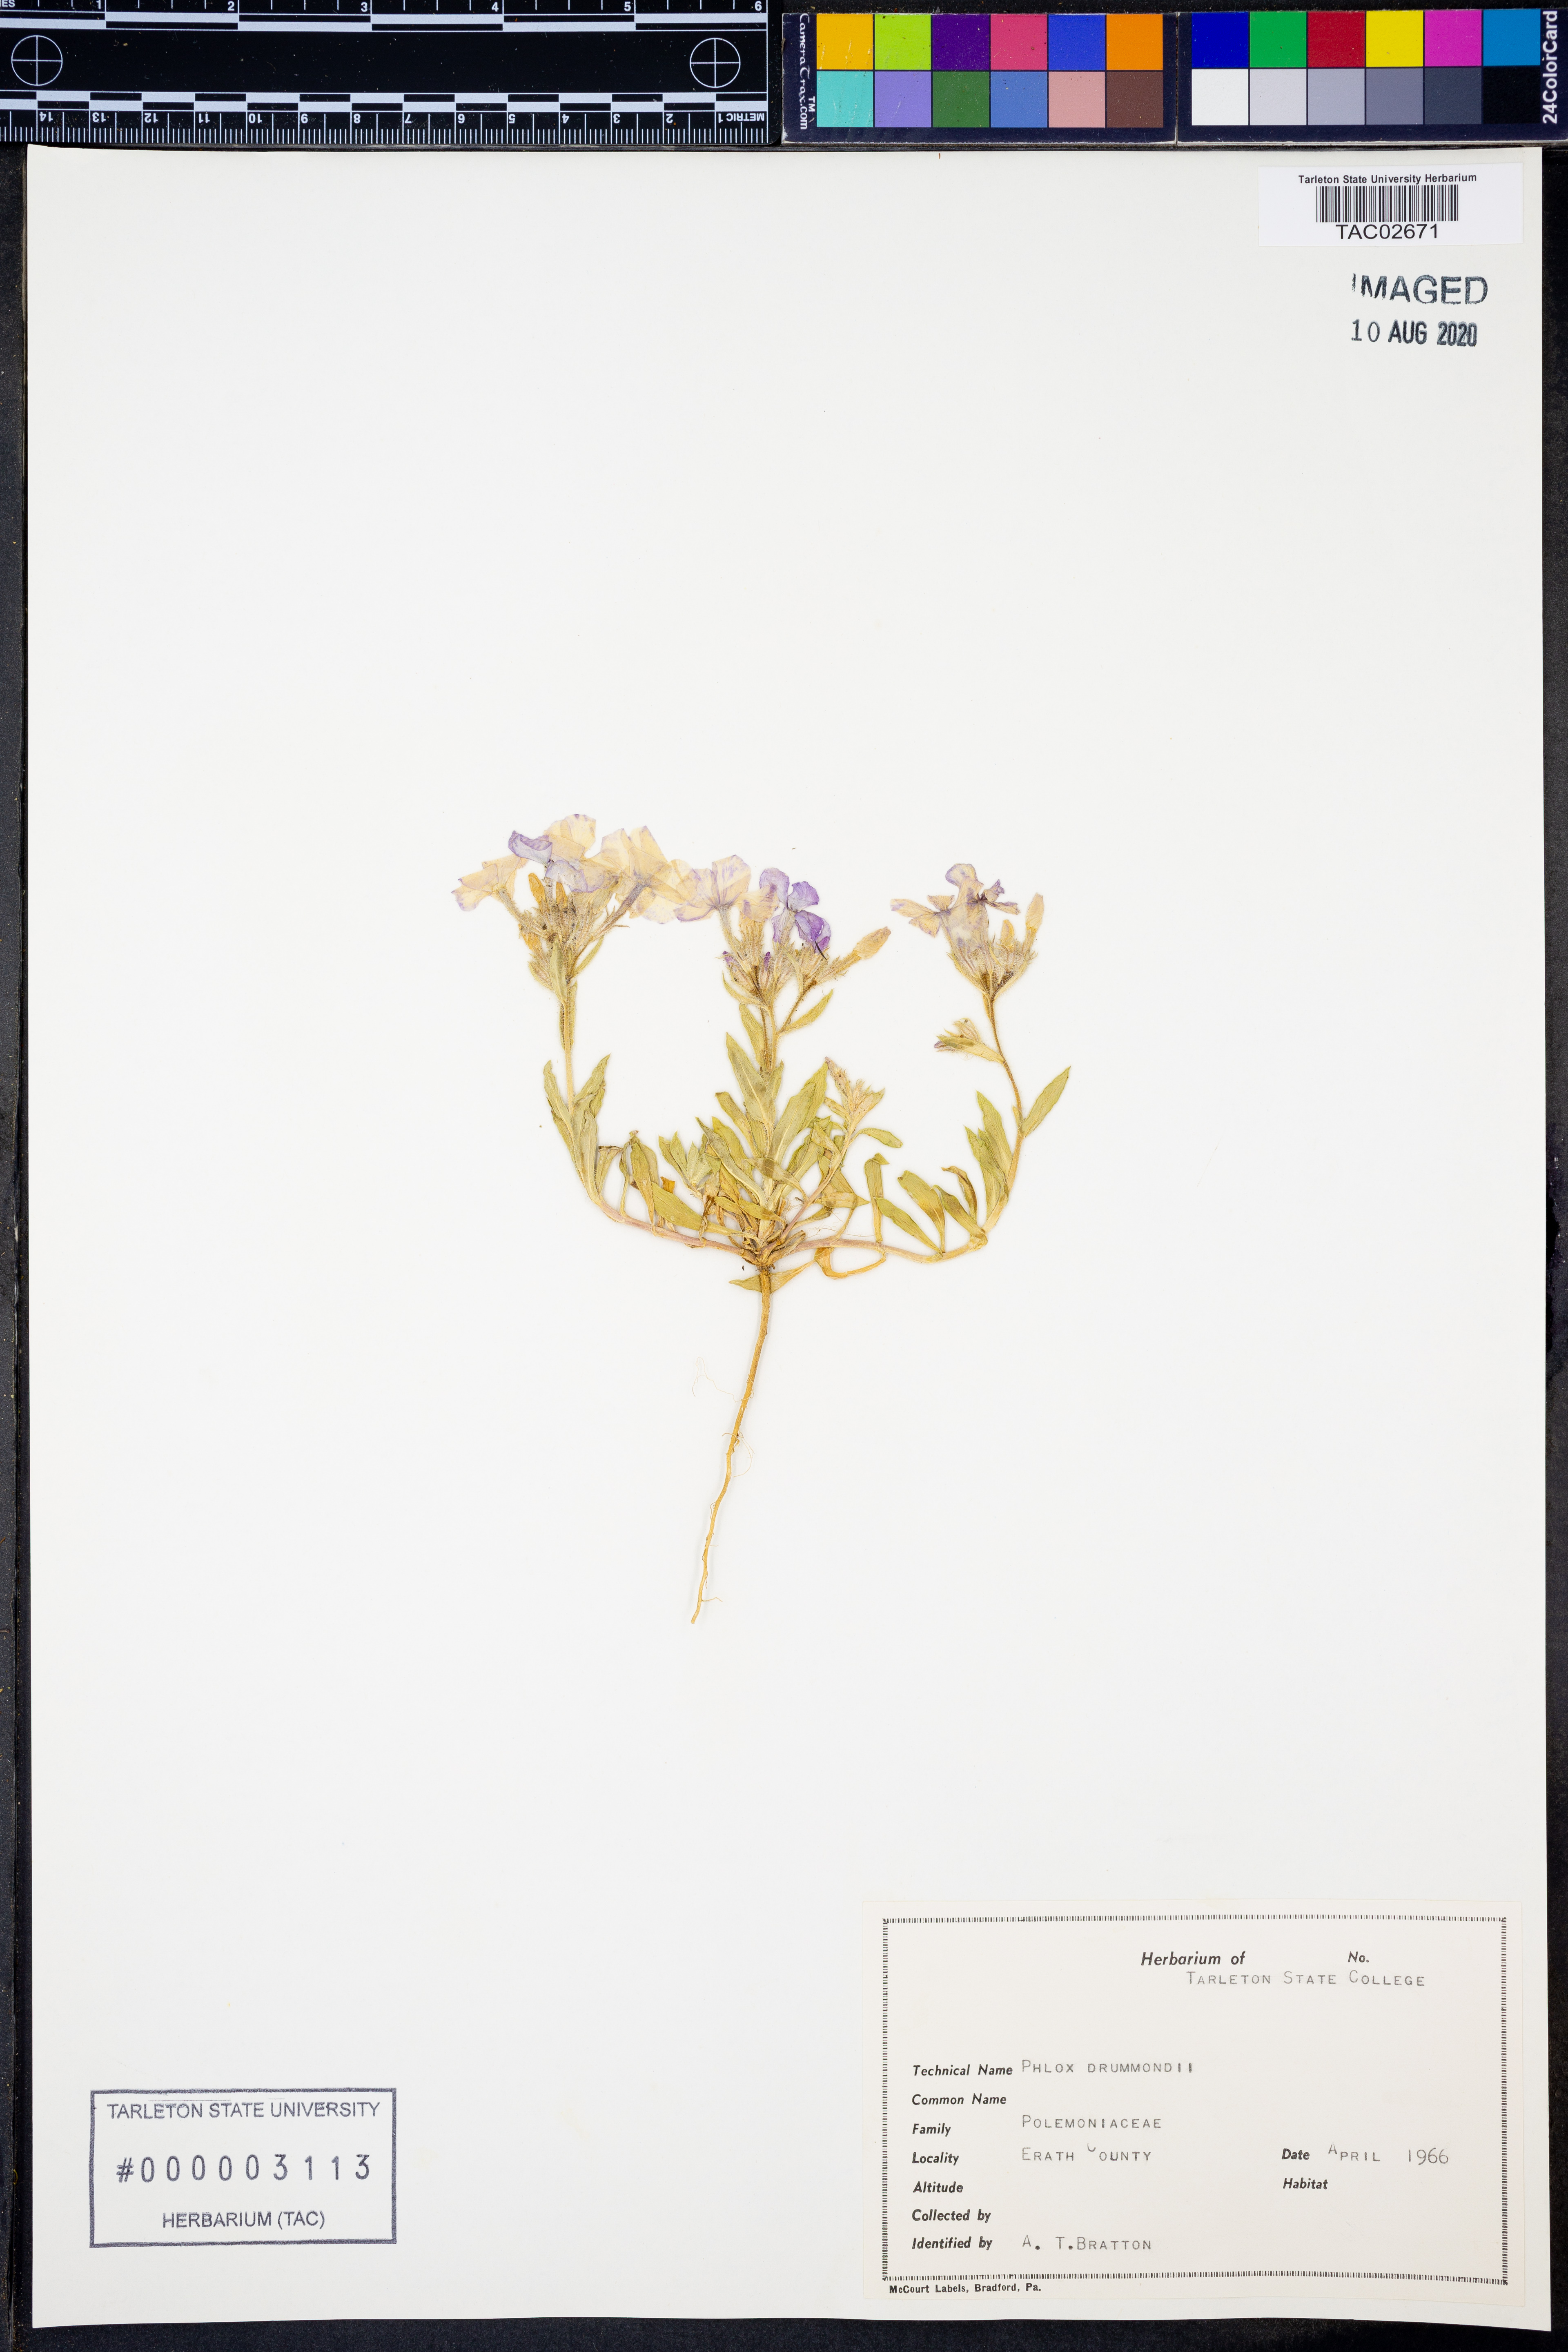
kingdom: Plantae
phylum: Tracheophyta
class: Magnoliopsida
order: Ericales
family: Polemoniaceae
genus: Phlox
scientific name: Phlox drummondii
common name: Drummond's phlox
